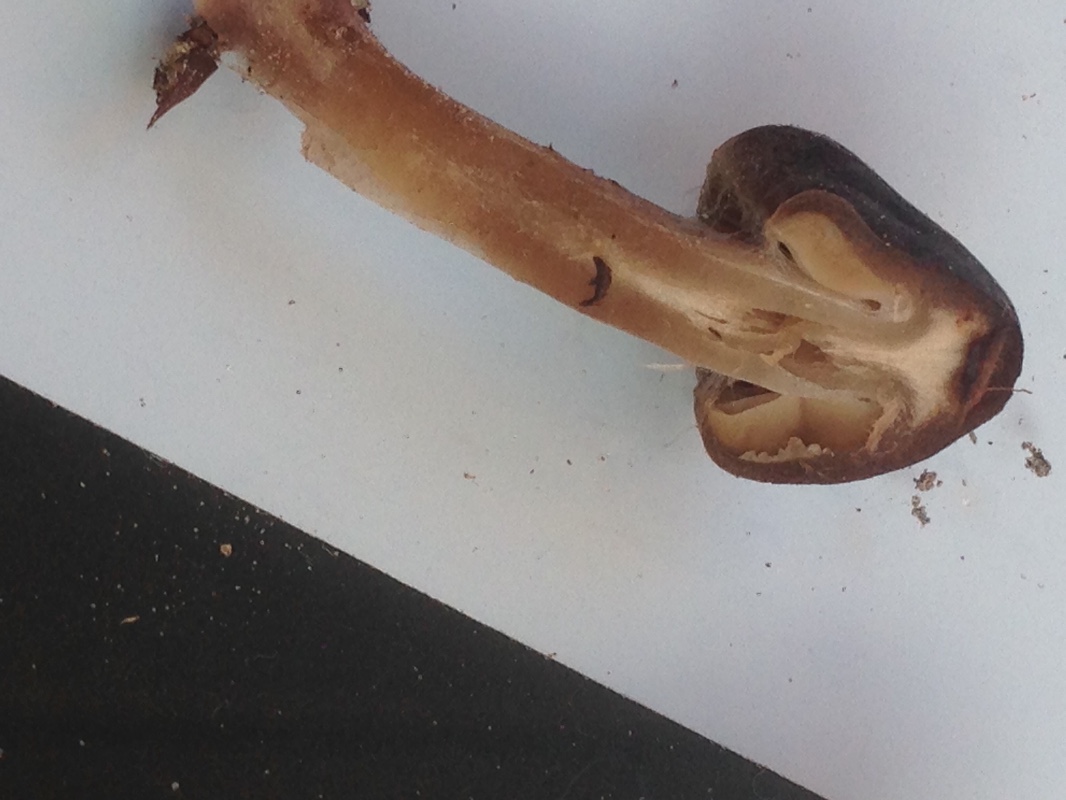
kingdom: Fungi
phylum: Basidiomycota
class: Agaricomycetes
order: Agaricales
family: Cortinariaceae
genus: Cortinarius
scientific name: Cortinarius vernus
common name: sommer-slørhat
